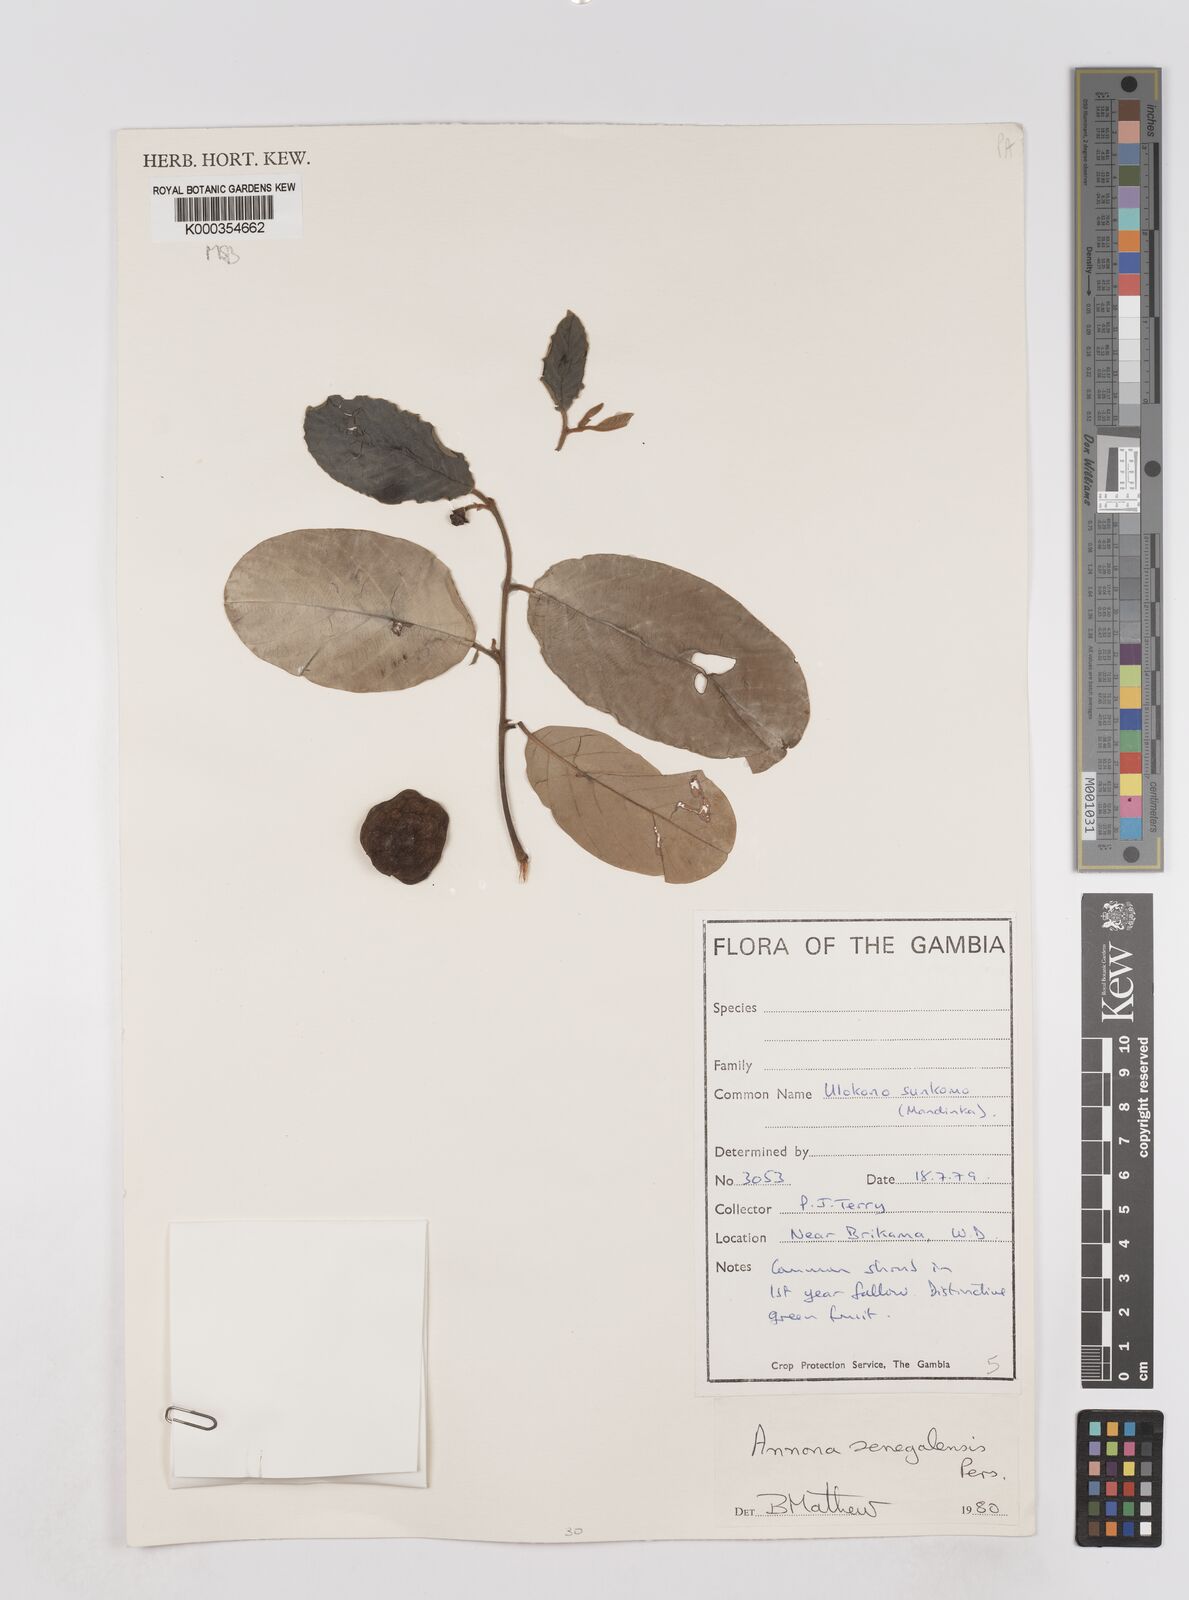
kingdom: Plantae
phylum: Tracheophyta
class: Magnoliopsida
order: Magnoliales
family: Annonaceae
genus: Annona
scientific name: Annona senegalensis
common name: Wild custard-apple
